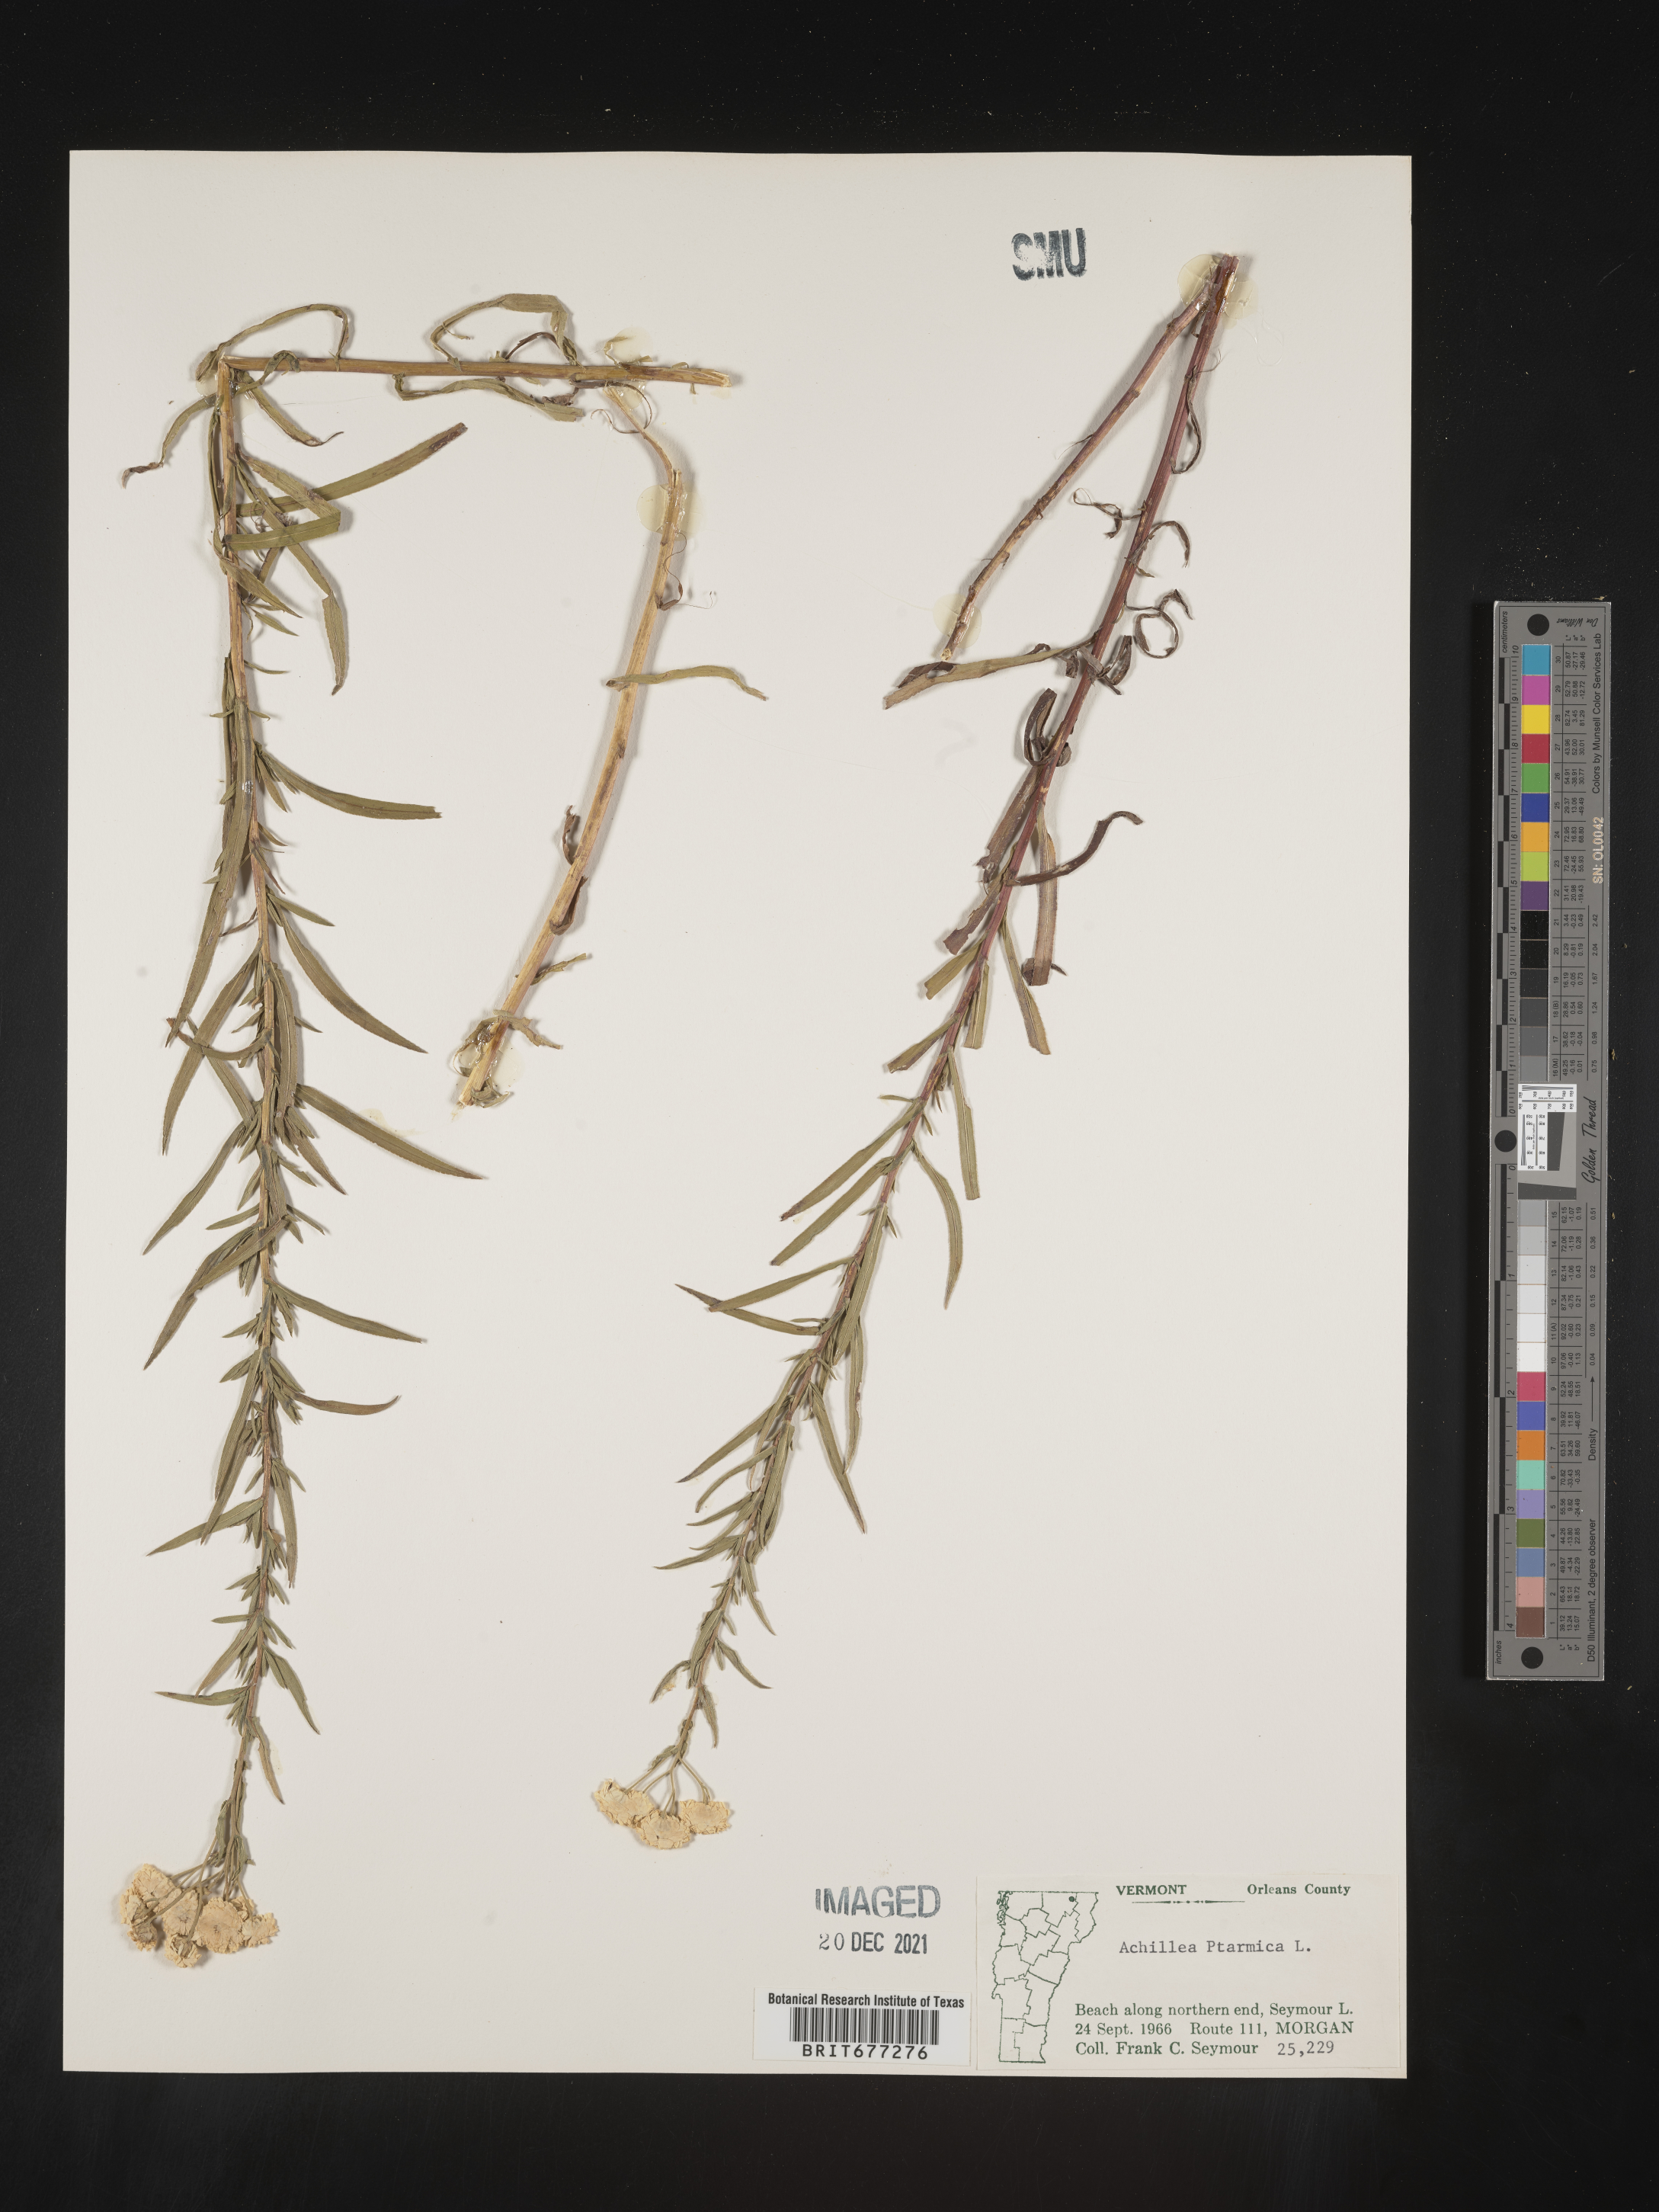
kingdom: Plantae
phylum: Tracheophyta
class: Magnoliopsida
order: Asterales
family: Asteraceae
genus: Achillea
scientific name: Achillea
